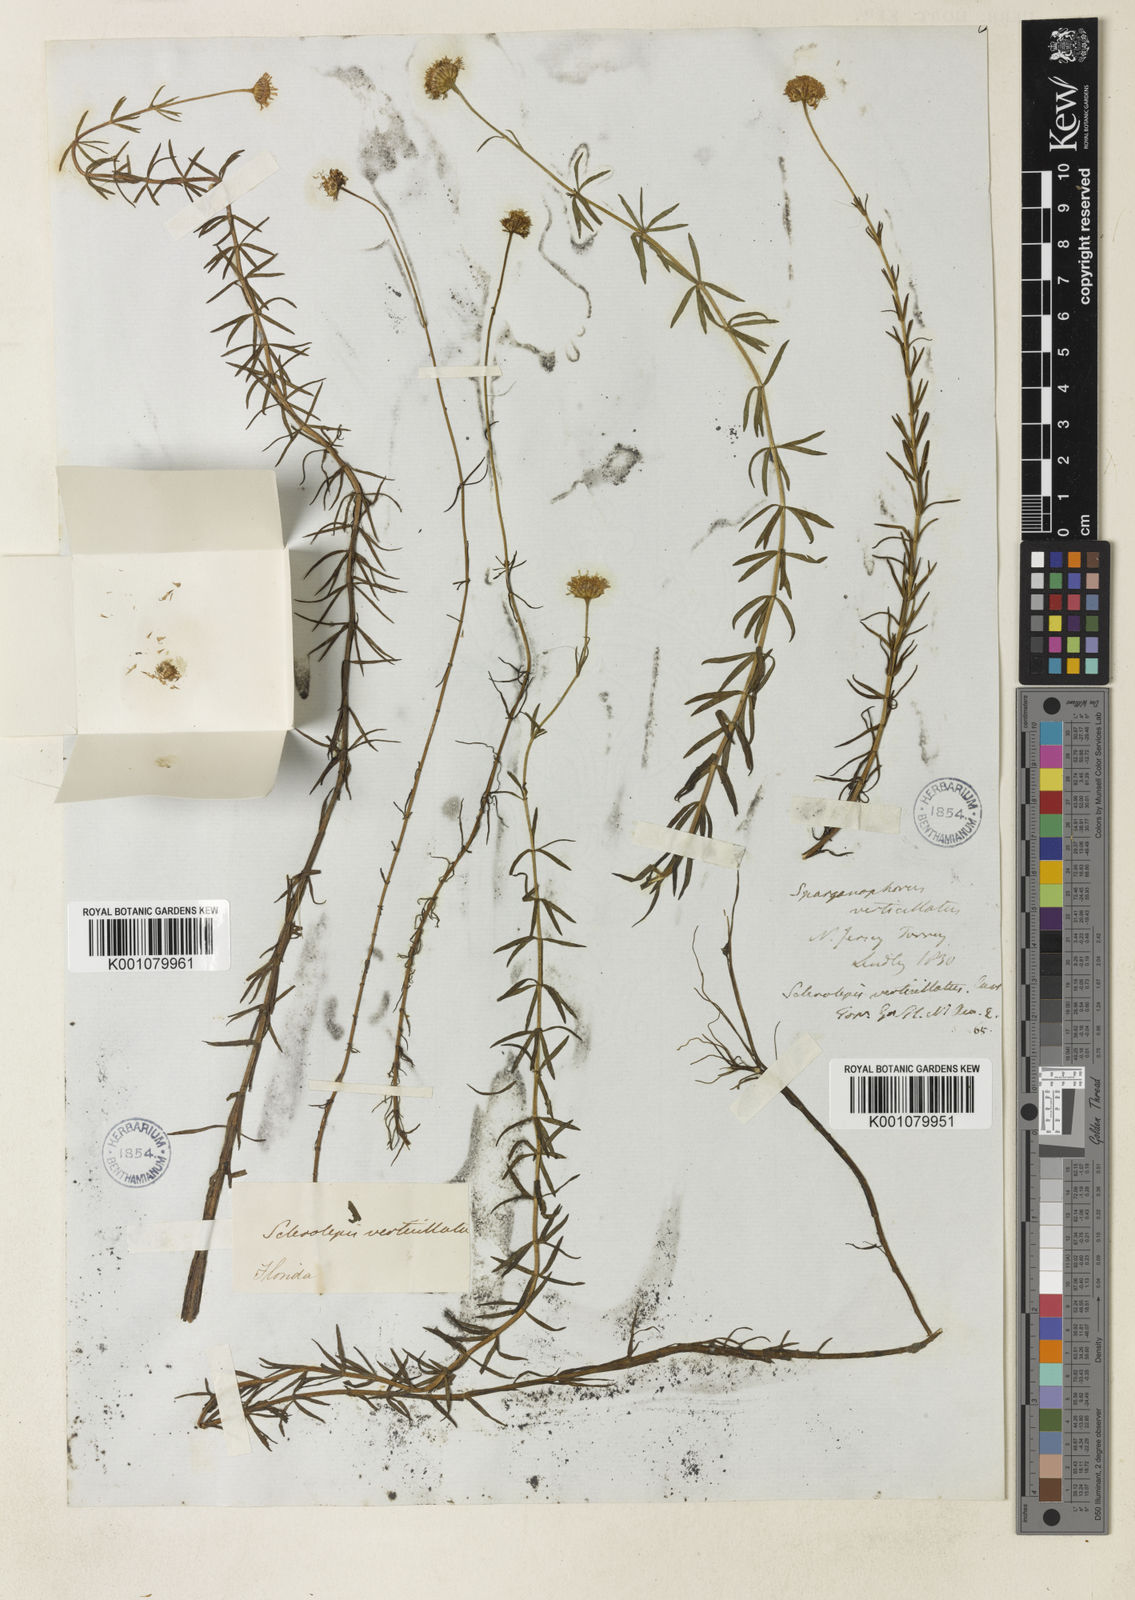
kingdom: Plantae
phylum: Tracheophyta
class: Magnoliopsida
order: Asterales
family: Asteraceae
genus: Sclerolepis
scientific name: Sclerolepis uniflora
